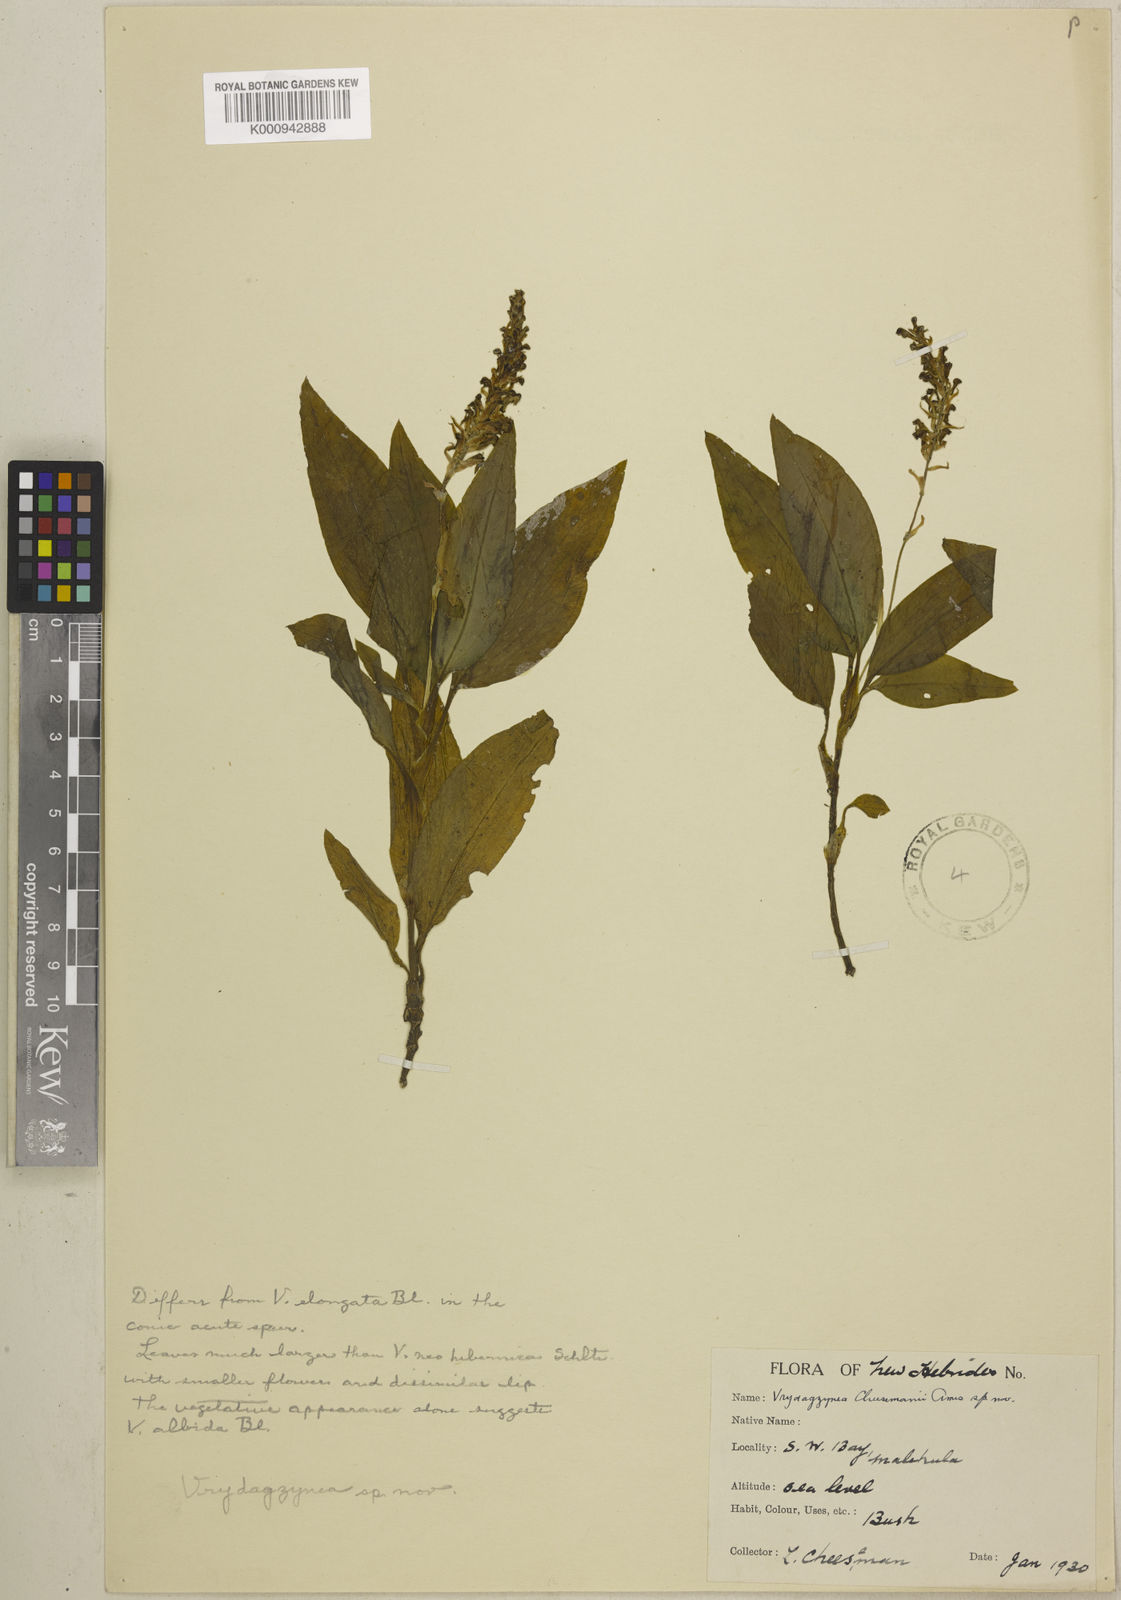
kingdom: Plantae
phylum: Tracheophyta
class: Liliopsida
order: Asparagales
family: Orchidaceae
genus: Vrydagzynea
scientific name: Vrydagzynea salomonensis
